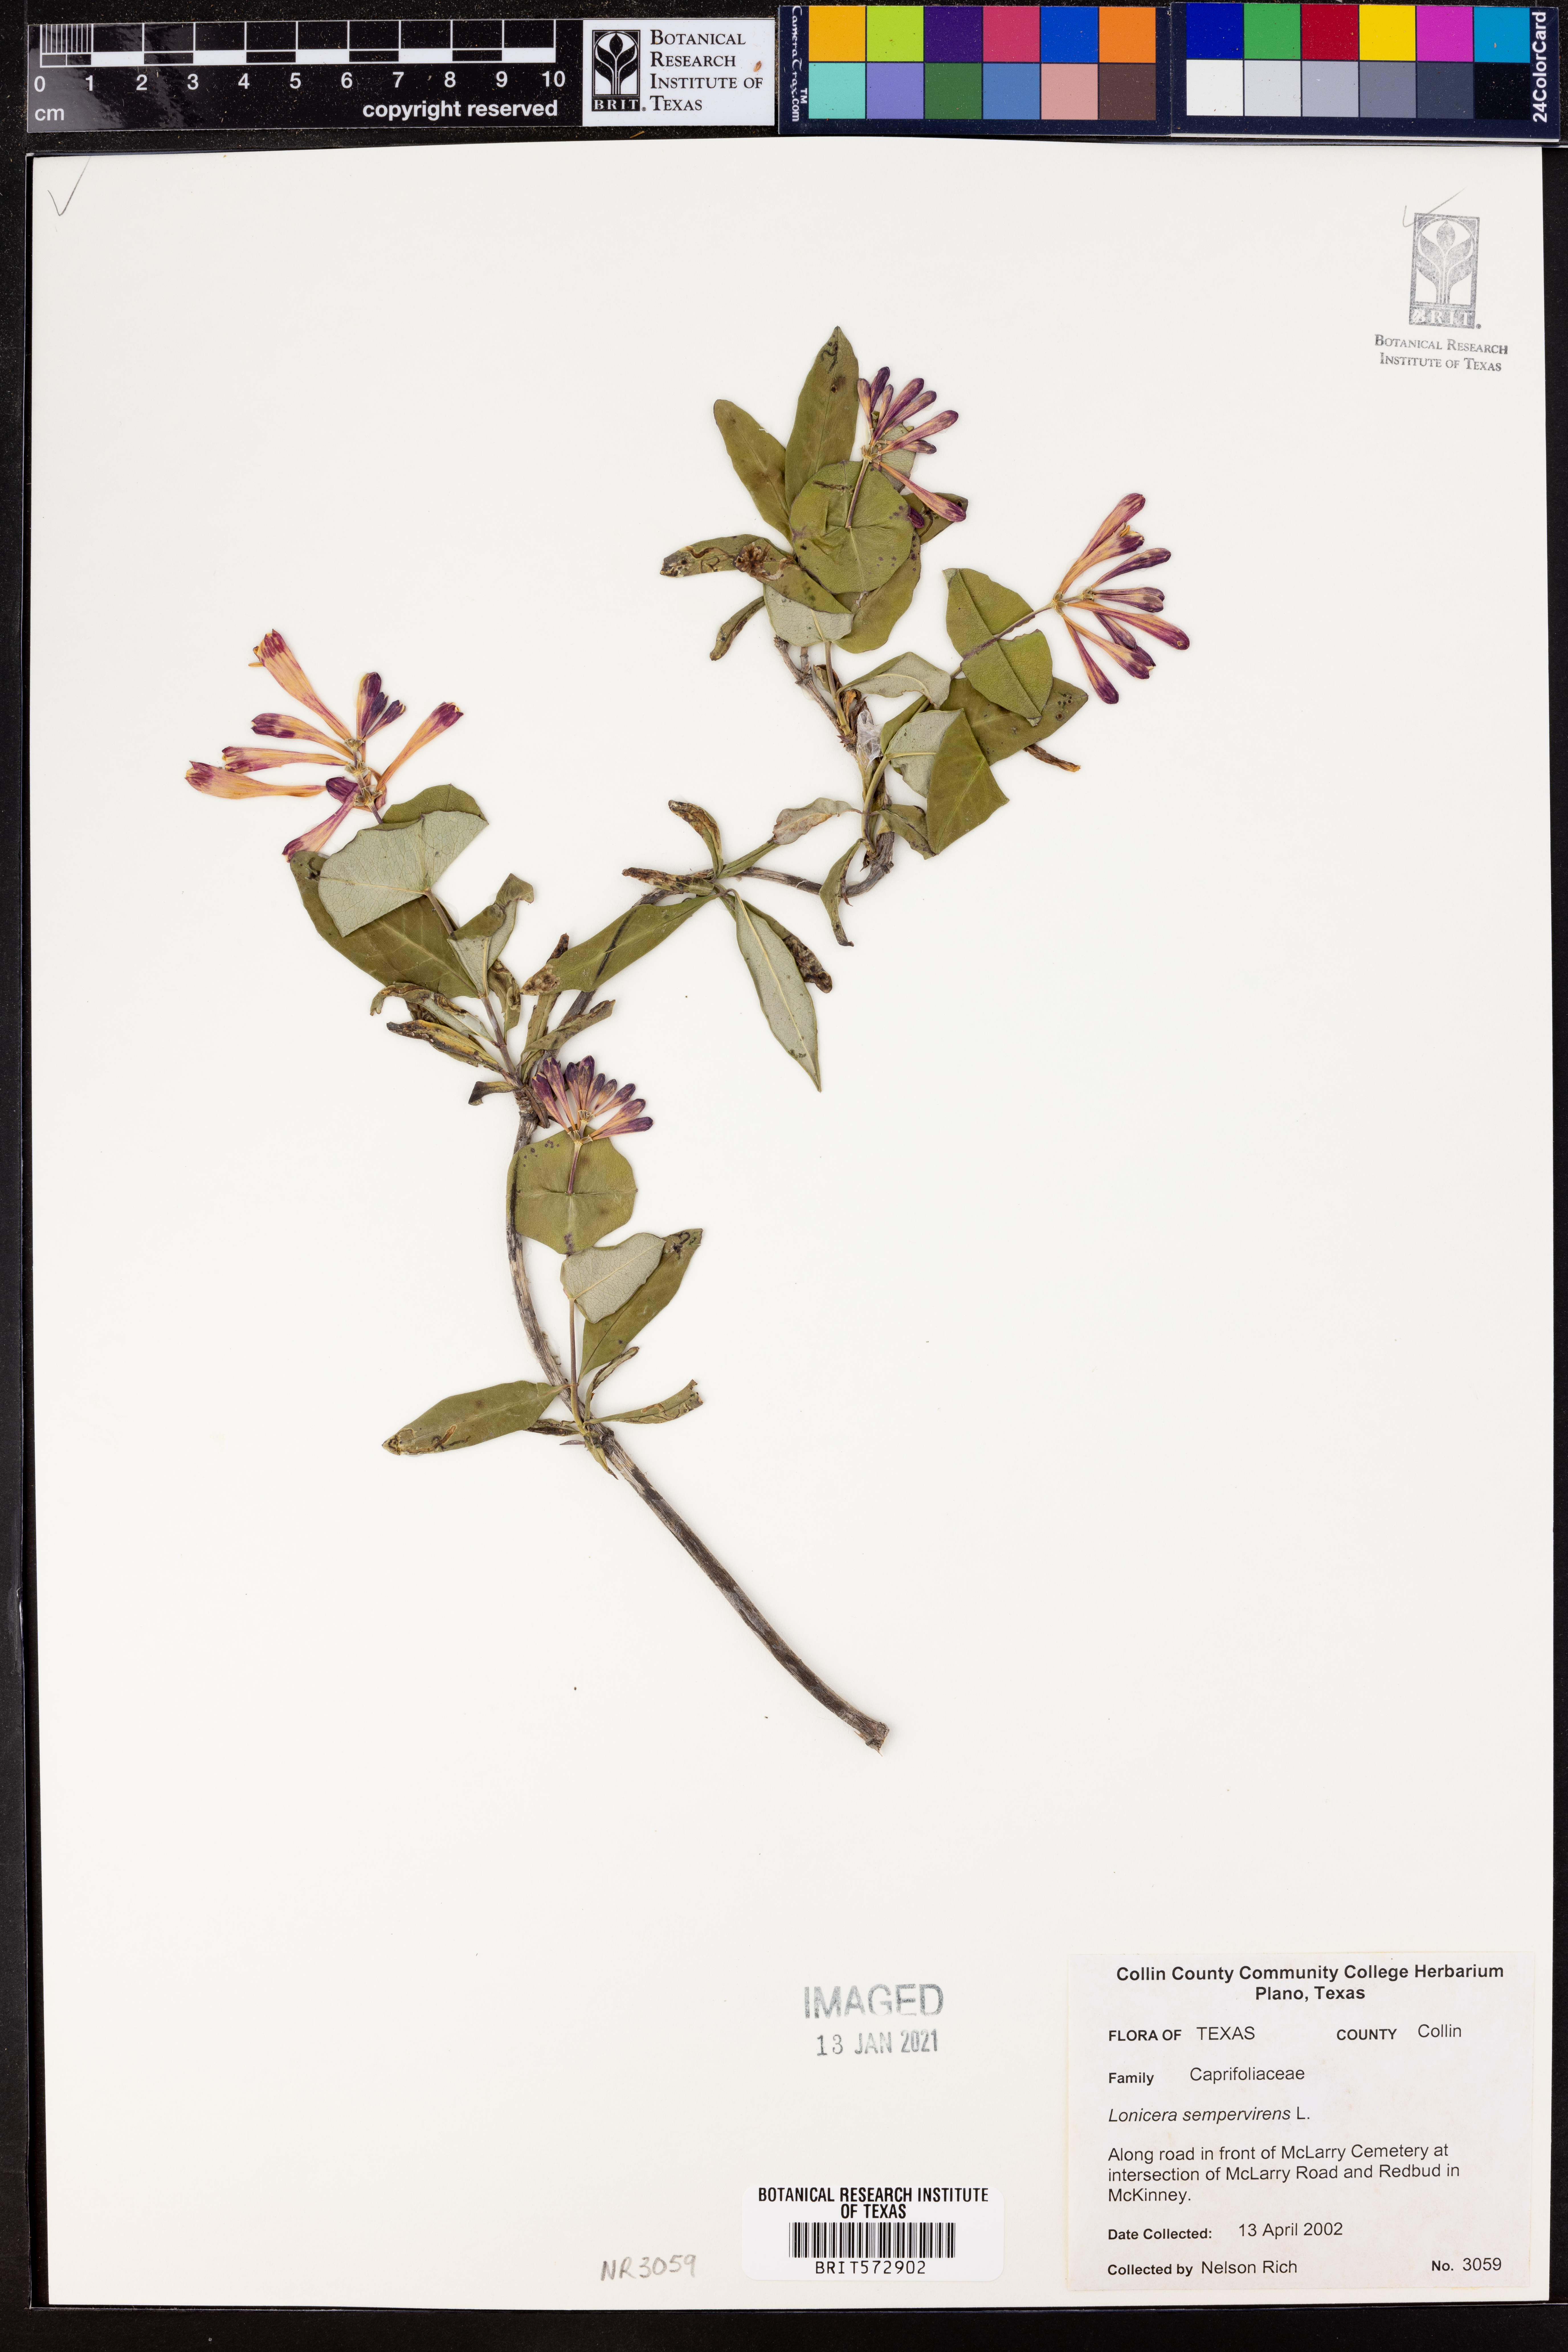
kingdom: Plantae
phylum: Tracheophyta
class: Magnoliopsida
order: Dipsacales
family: Caprifoliaceae
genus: Lonicera
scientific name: Lonicera sempervirens
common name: Coral honeysuckle
